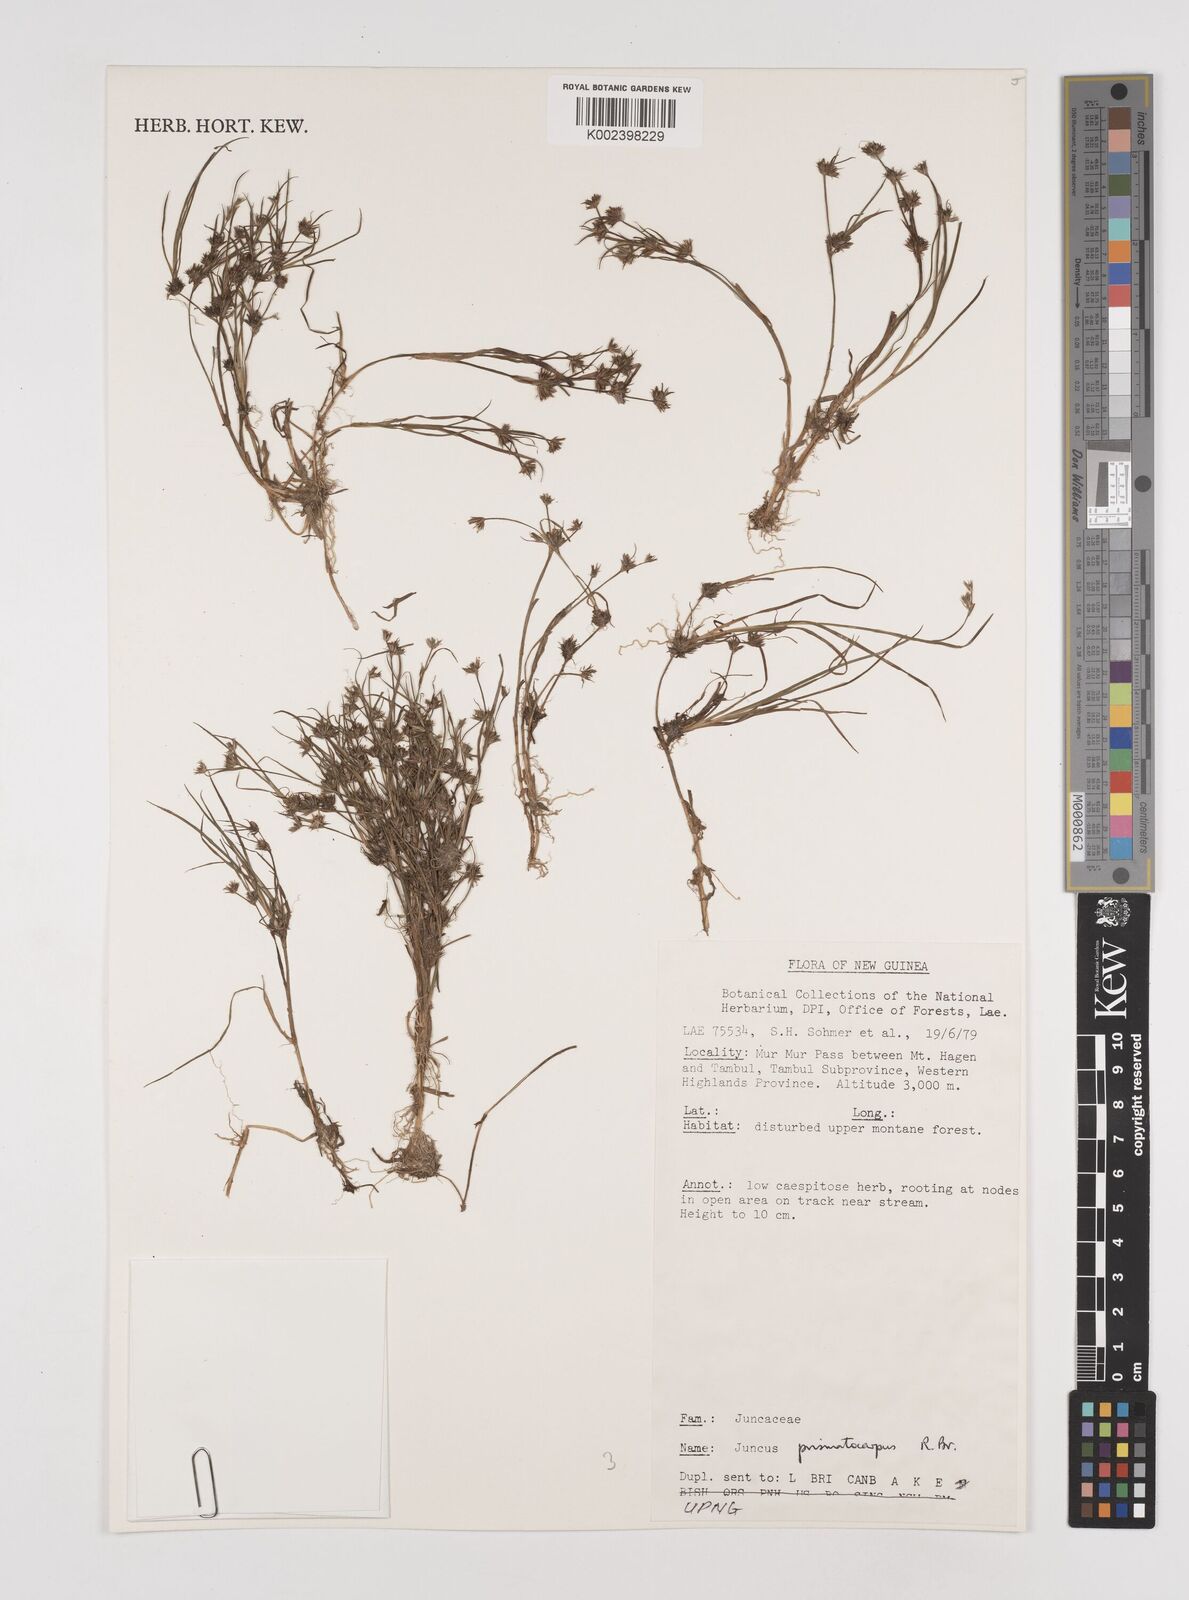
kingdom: Plantae
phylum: Tracheophyta
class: Liliopsida
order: Poales
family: Juncaceae
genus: Juncus
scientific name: Juncus prismatocarpus
